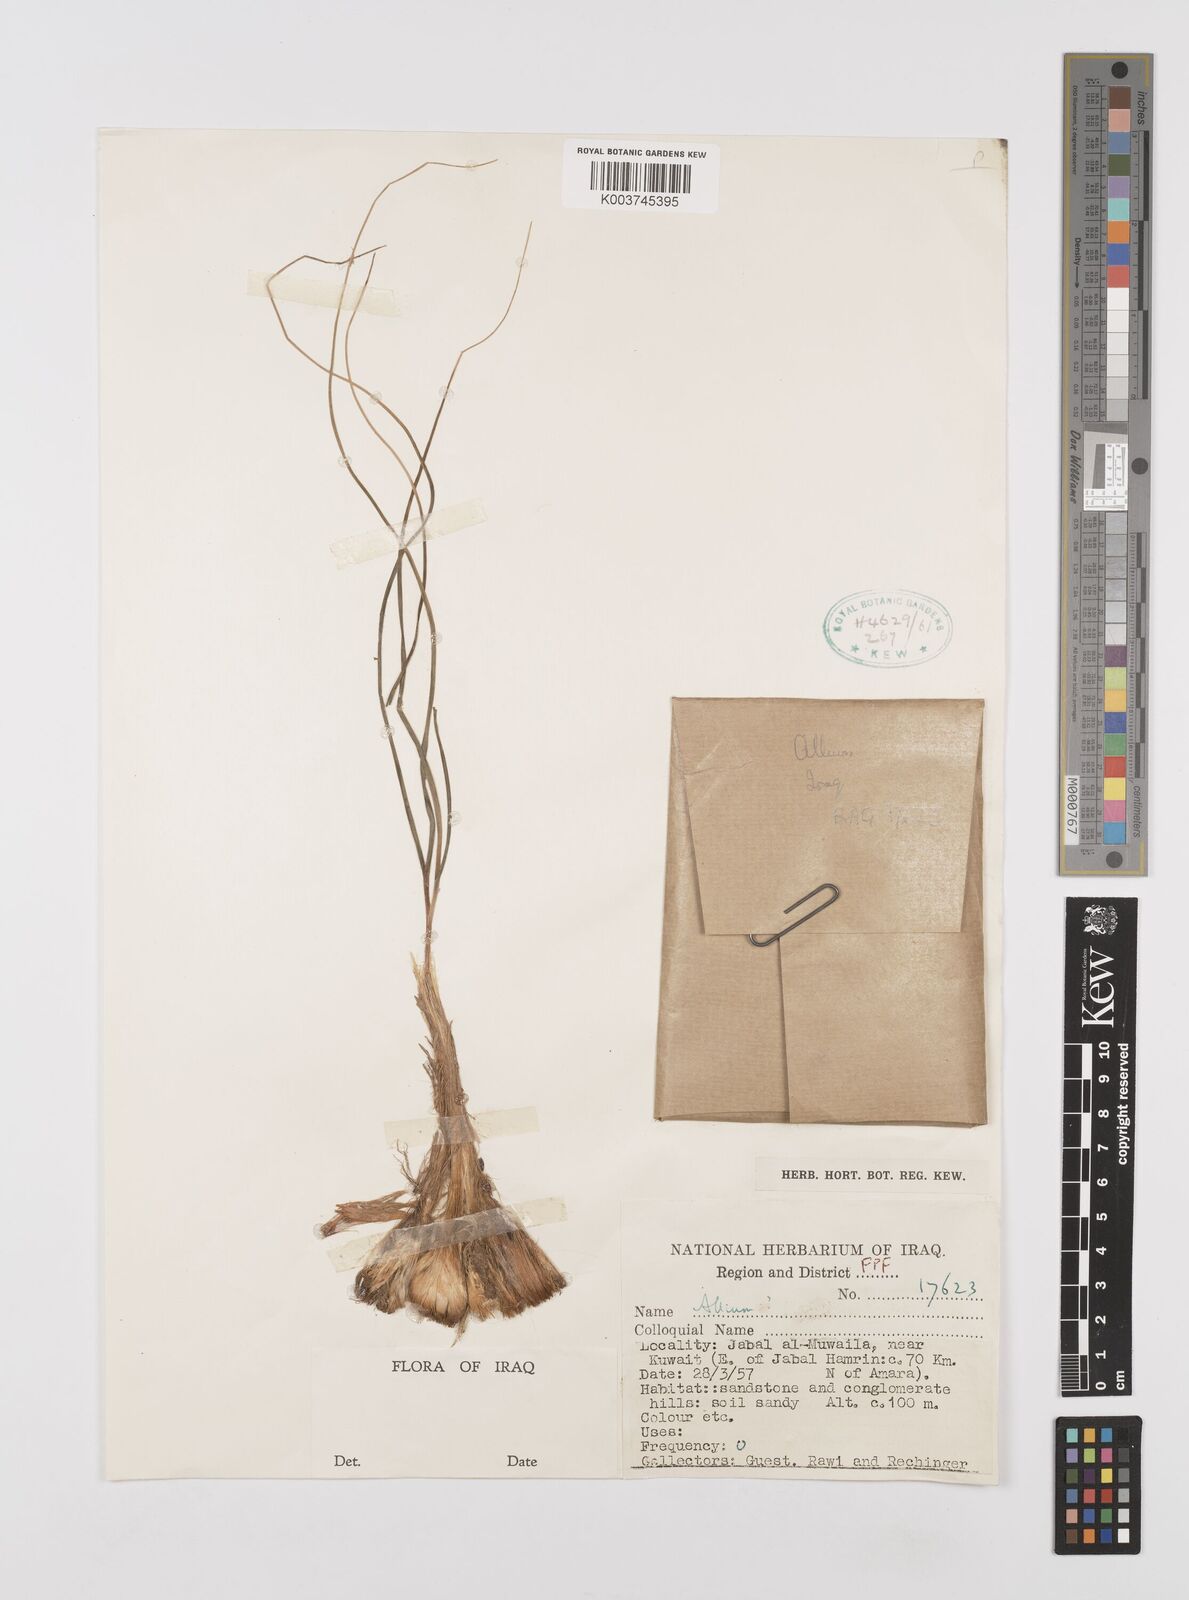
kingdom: Plantae
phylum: Tracheophyta
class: Liliopsida
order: Asparagales
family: Amaryllidaceae
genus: Allium
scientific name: Allium
